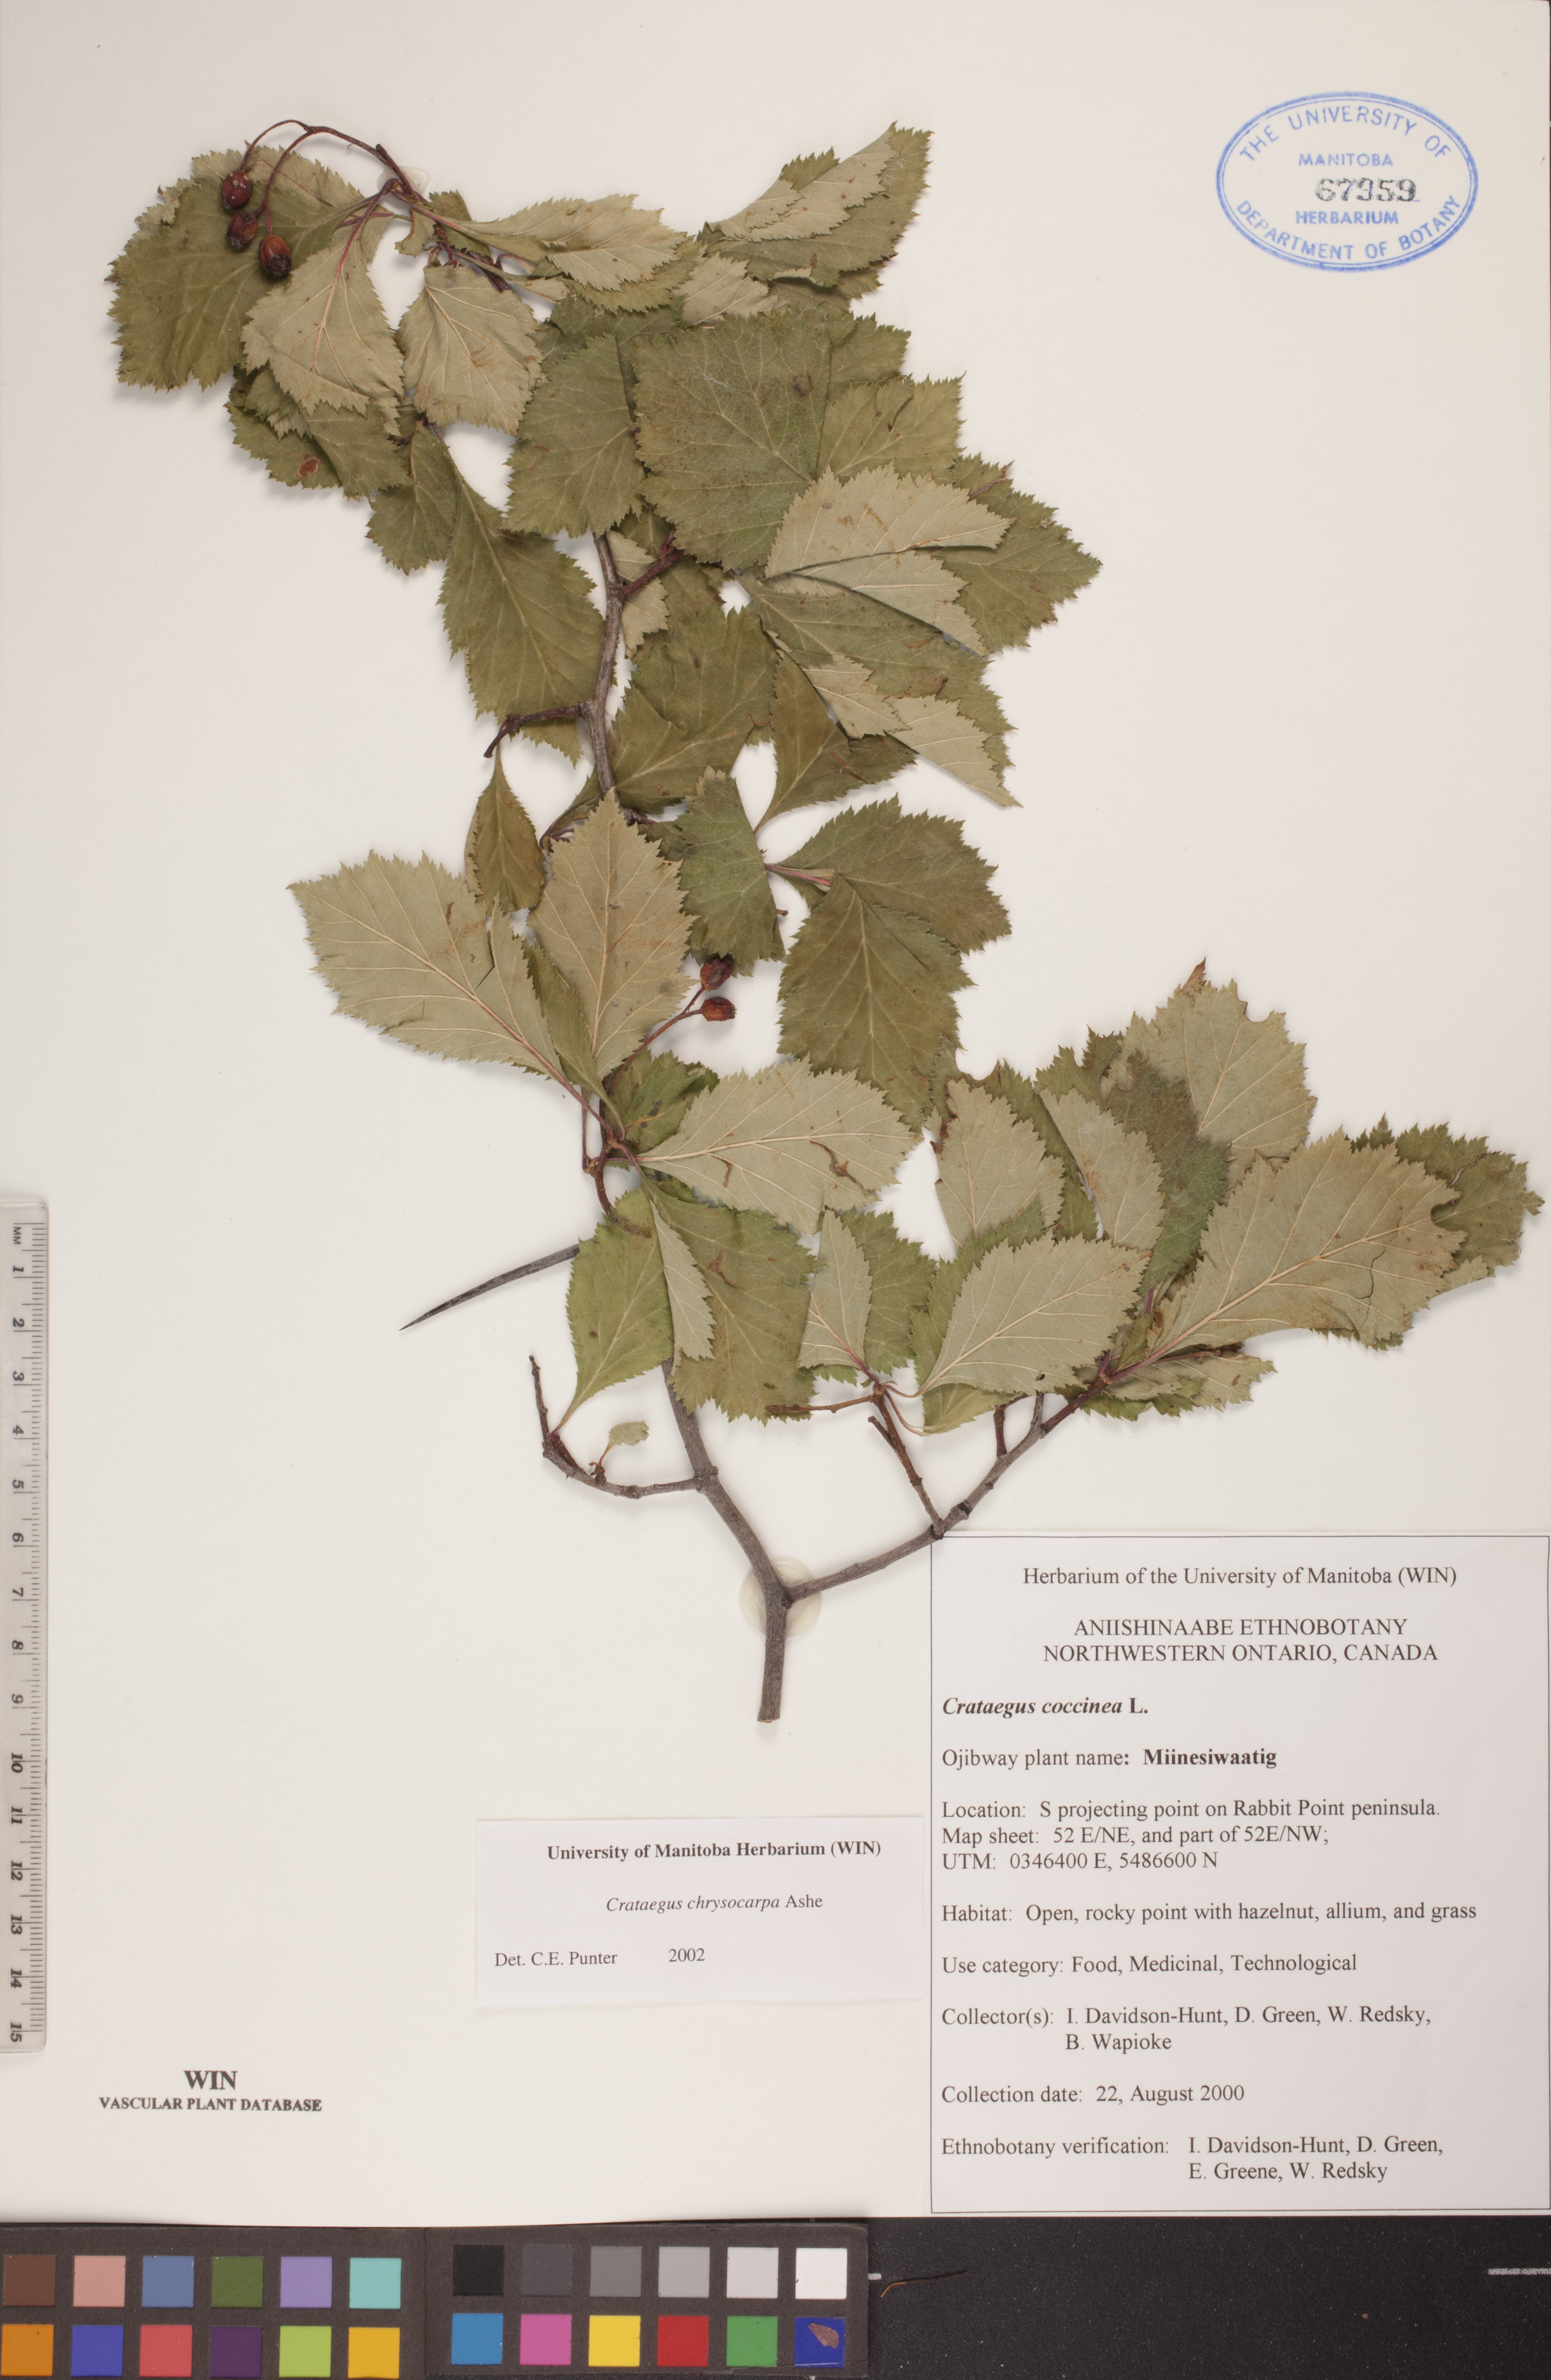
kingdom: Plantae
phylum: Tracheophyta
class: Magnoliopsida
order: Rosales
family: Rosaceae
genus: Crataegus
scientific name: Crataegus chrysocarpa
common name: Fire-berry hawthorn
